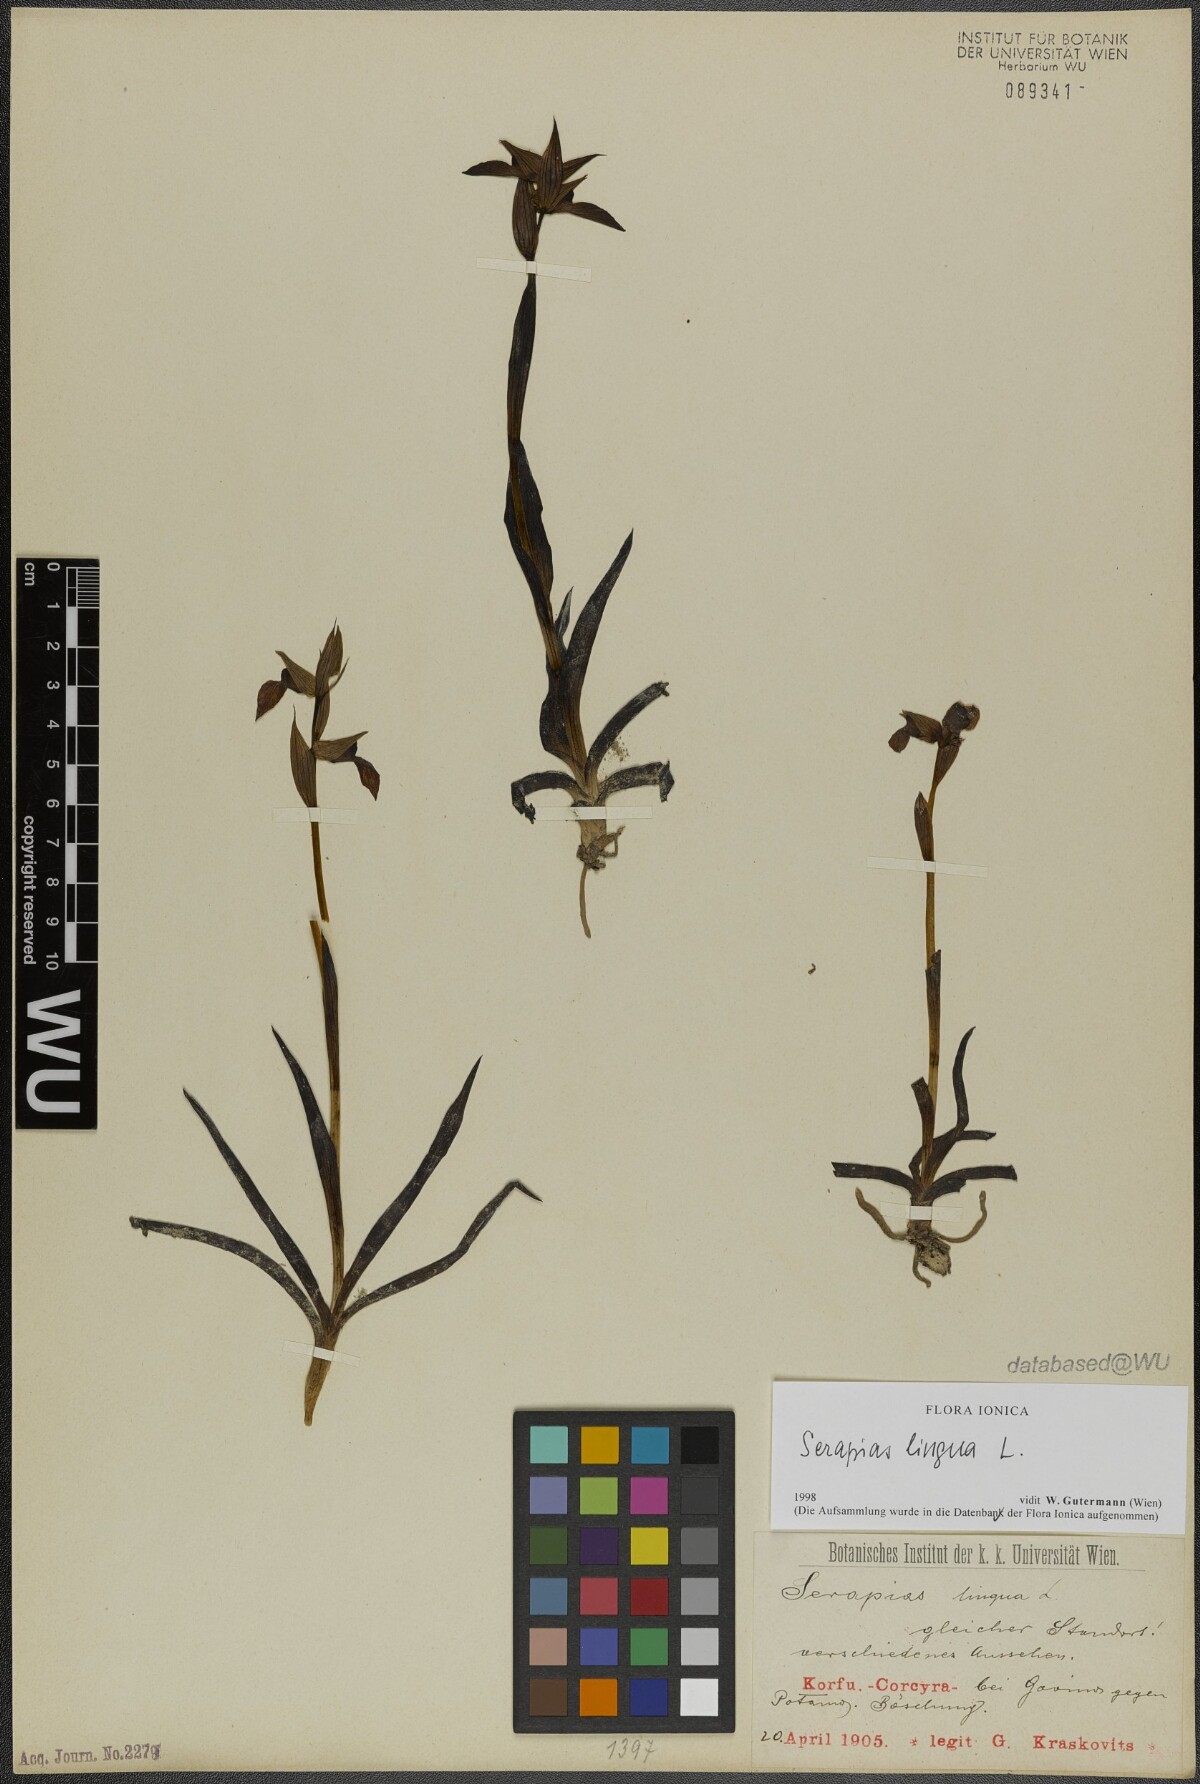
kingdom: Plantae
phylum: Tracheophyta
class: Liliopsida
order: Asparagales
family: Orchidaceae
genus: Serapias
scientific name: Serapias lingua
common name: Tongue-orchid
